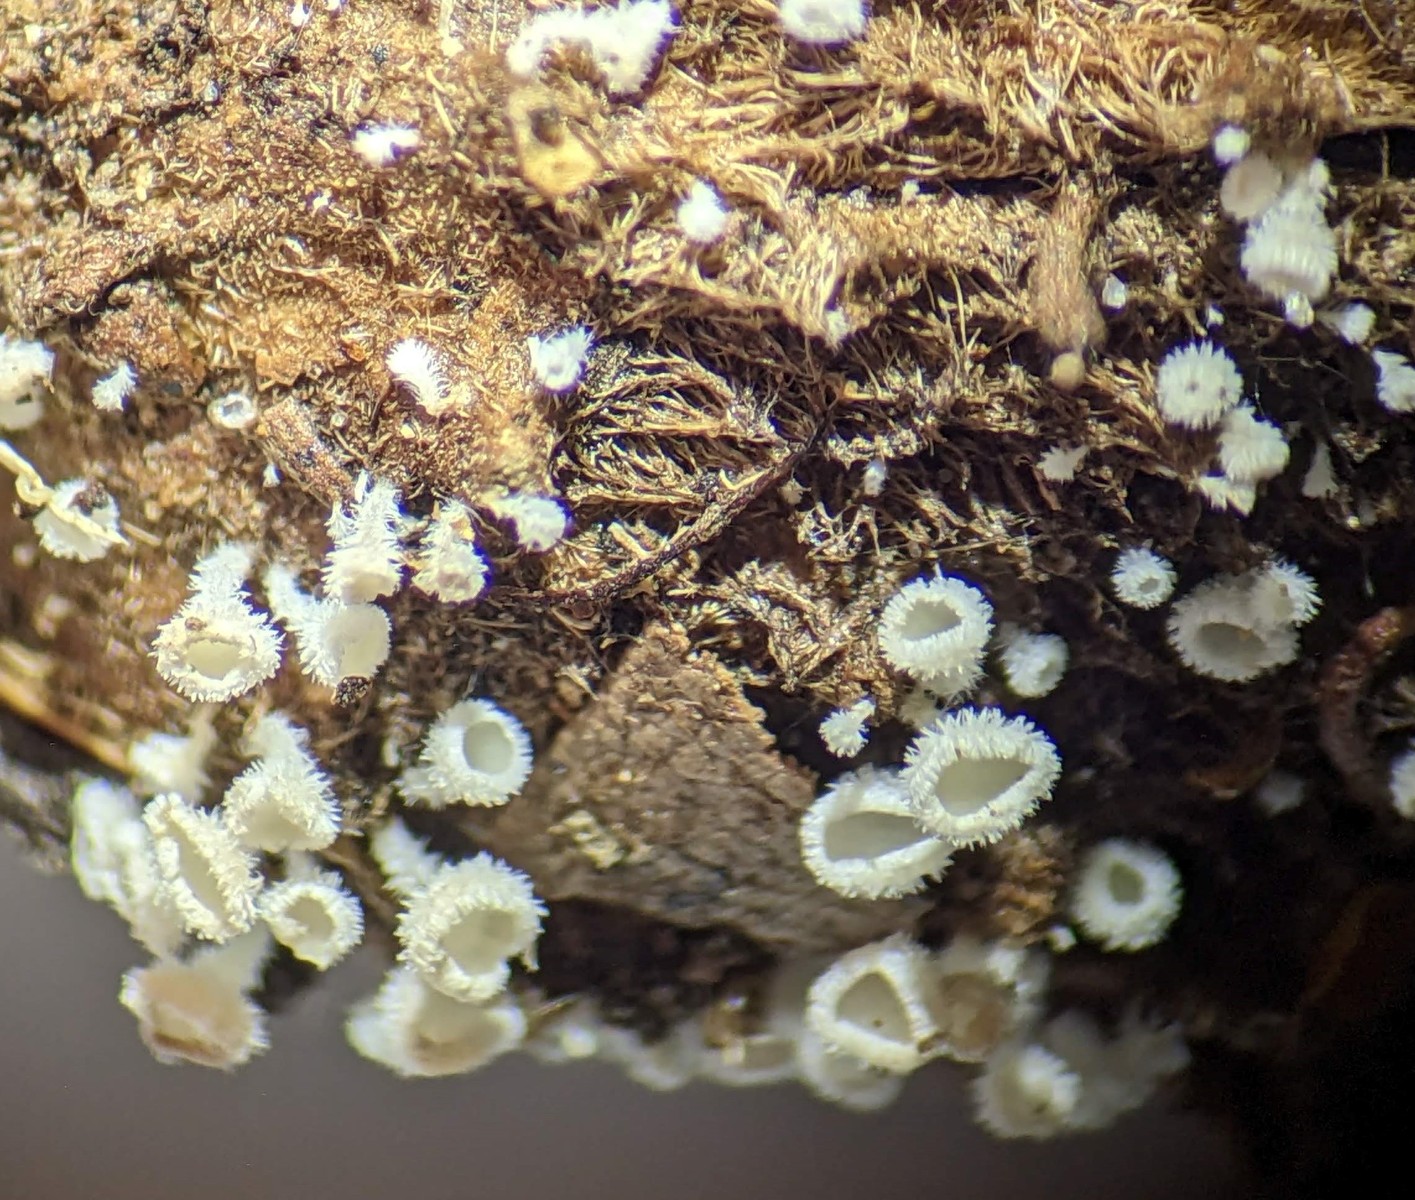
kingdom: Fungi
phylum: Ascomycota
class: Leotiomycetes
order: Helotiales
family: Lachnaceae
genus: Lachnum
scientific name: Lachnum virgineum
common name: jomfru-frynseskive
